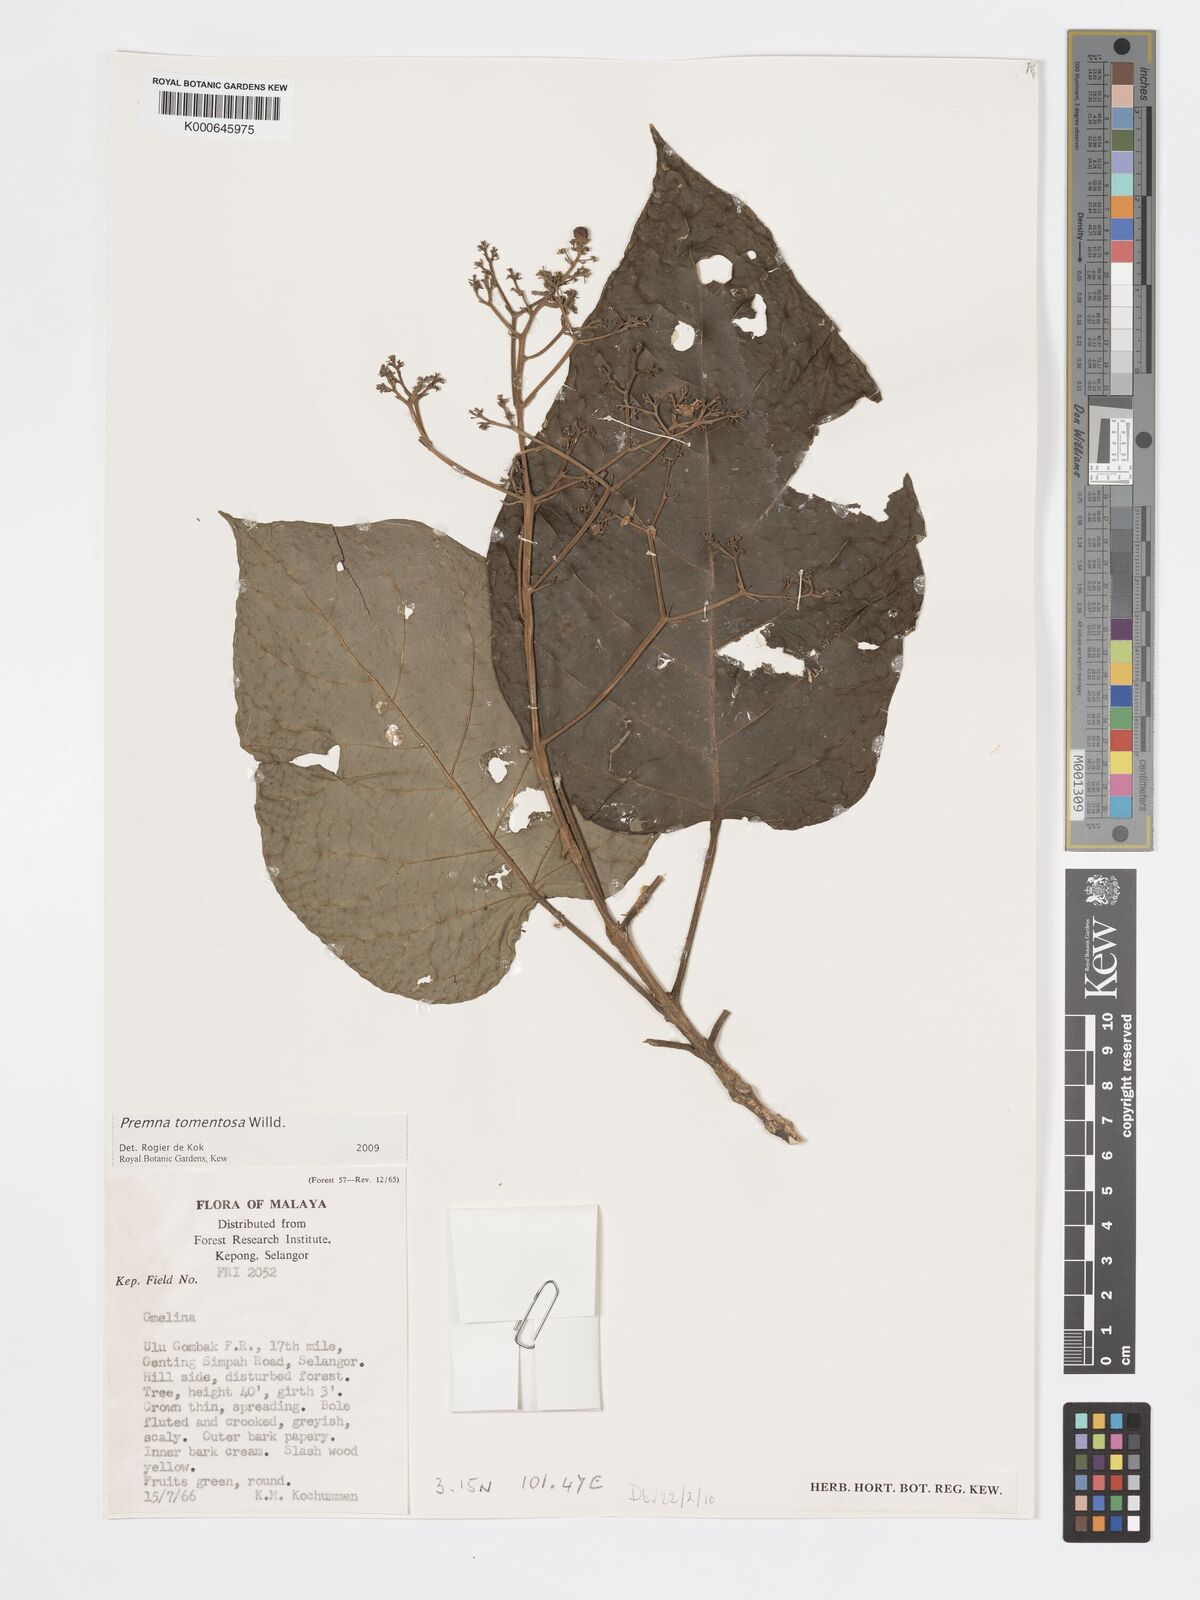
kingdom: Plantae
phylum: Tracheophyta
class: Magnoliopsida
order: Lamiales
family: Lamiaceae
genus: Premna
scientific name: Premna tomentosa
